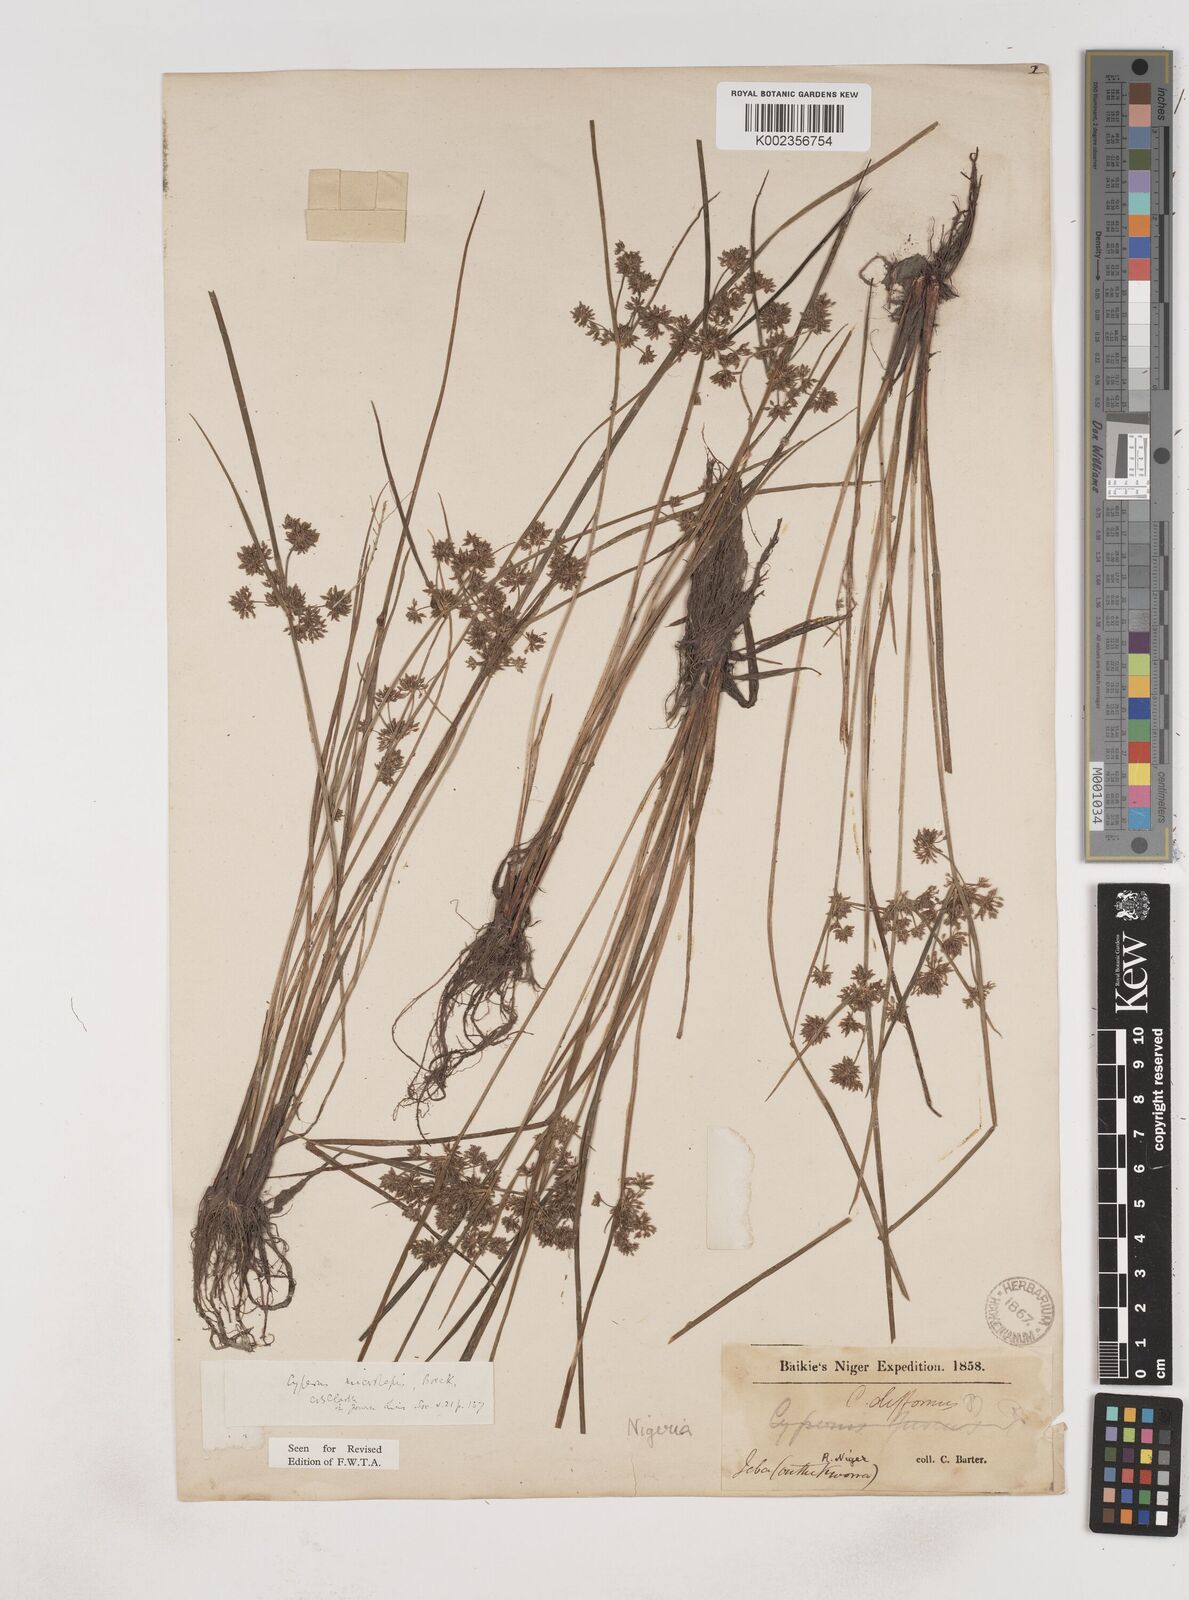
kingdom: Plantae
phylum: Tracheophyta
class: Liliopsida
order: Poales
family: Cyperaceae
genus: Cyperus
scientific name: Cyperus submicrolepis
